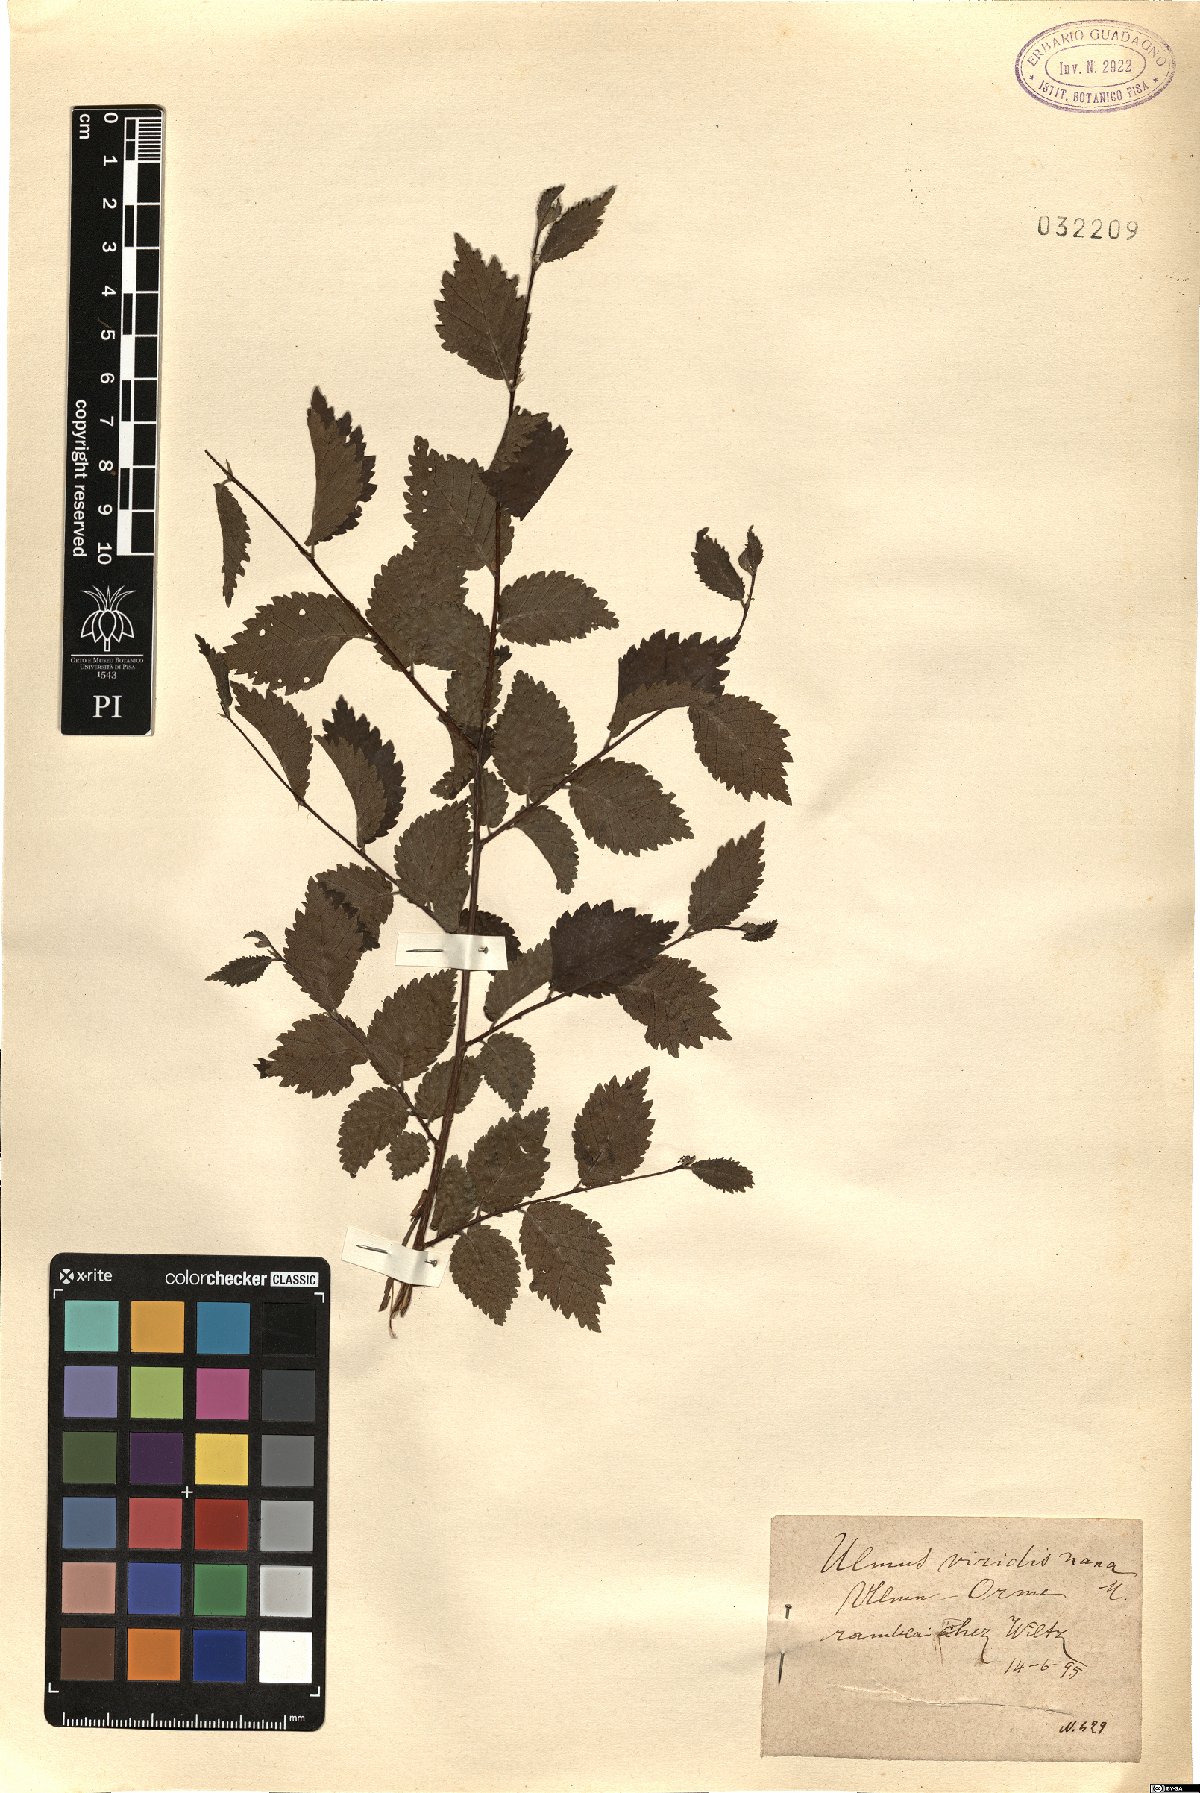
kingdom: Plantae
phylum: Tracheophyta
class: Magnoliopsida
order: Rosales
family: Ulmaceae
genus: Ulmus
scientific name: Ulmus minor
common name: Small-leaved elm
